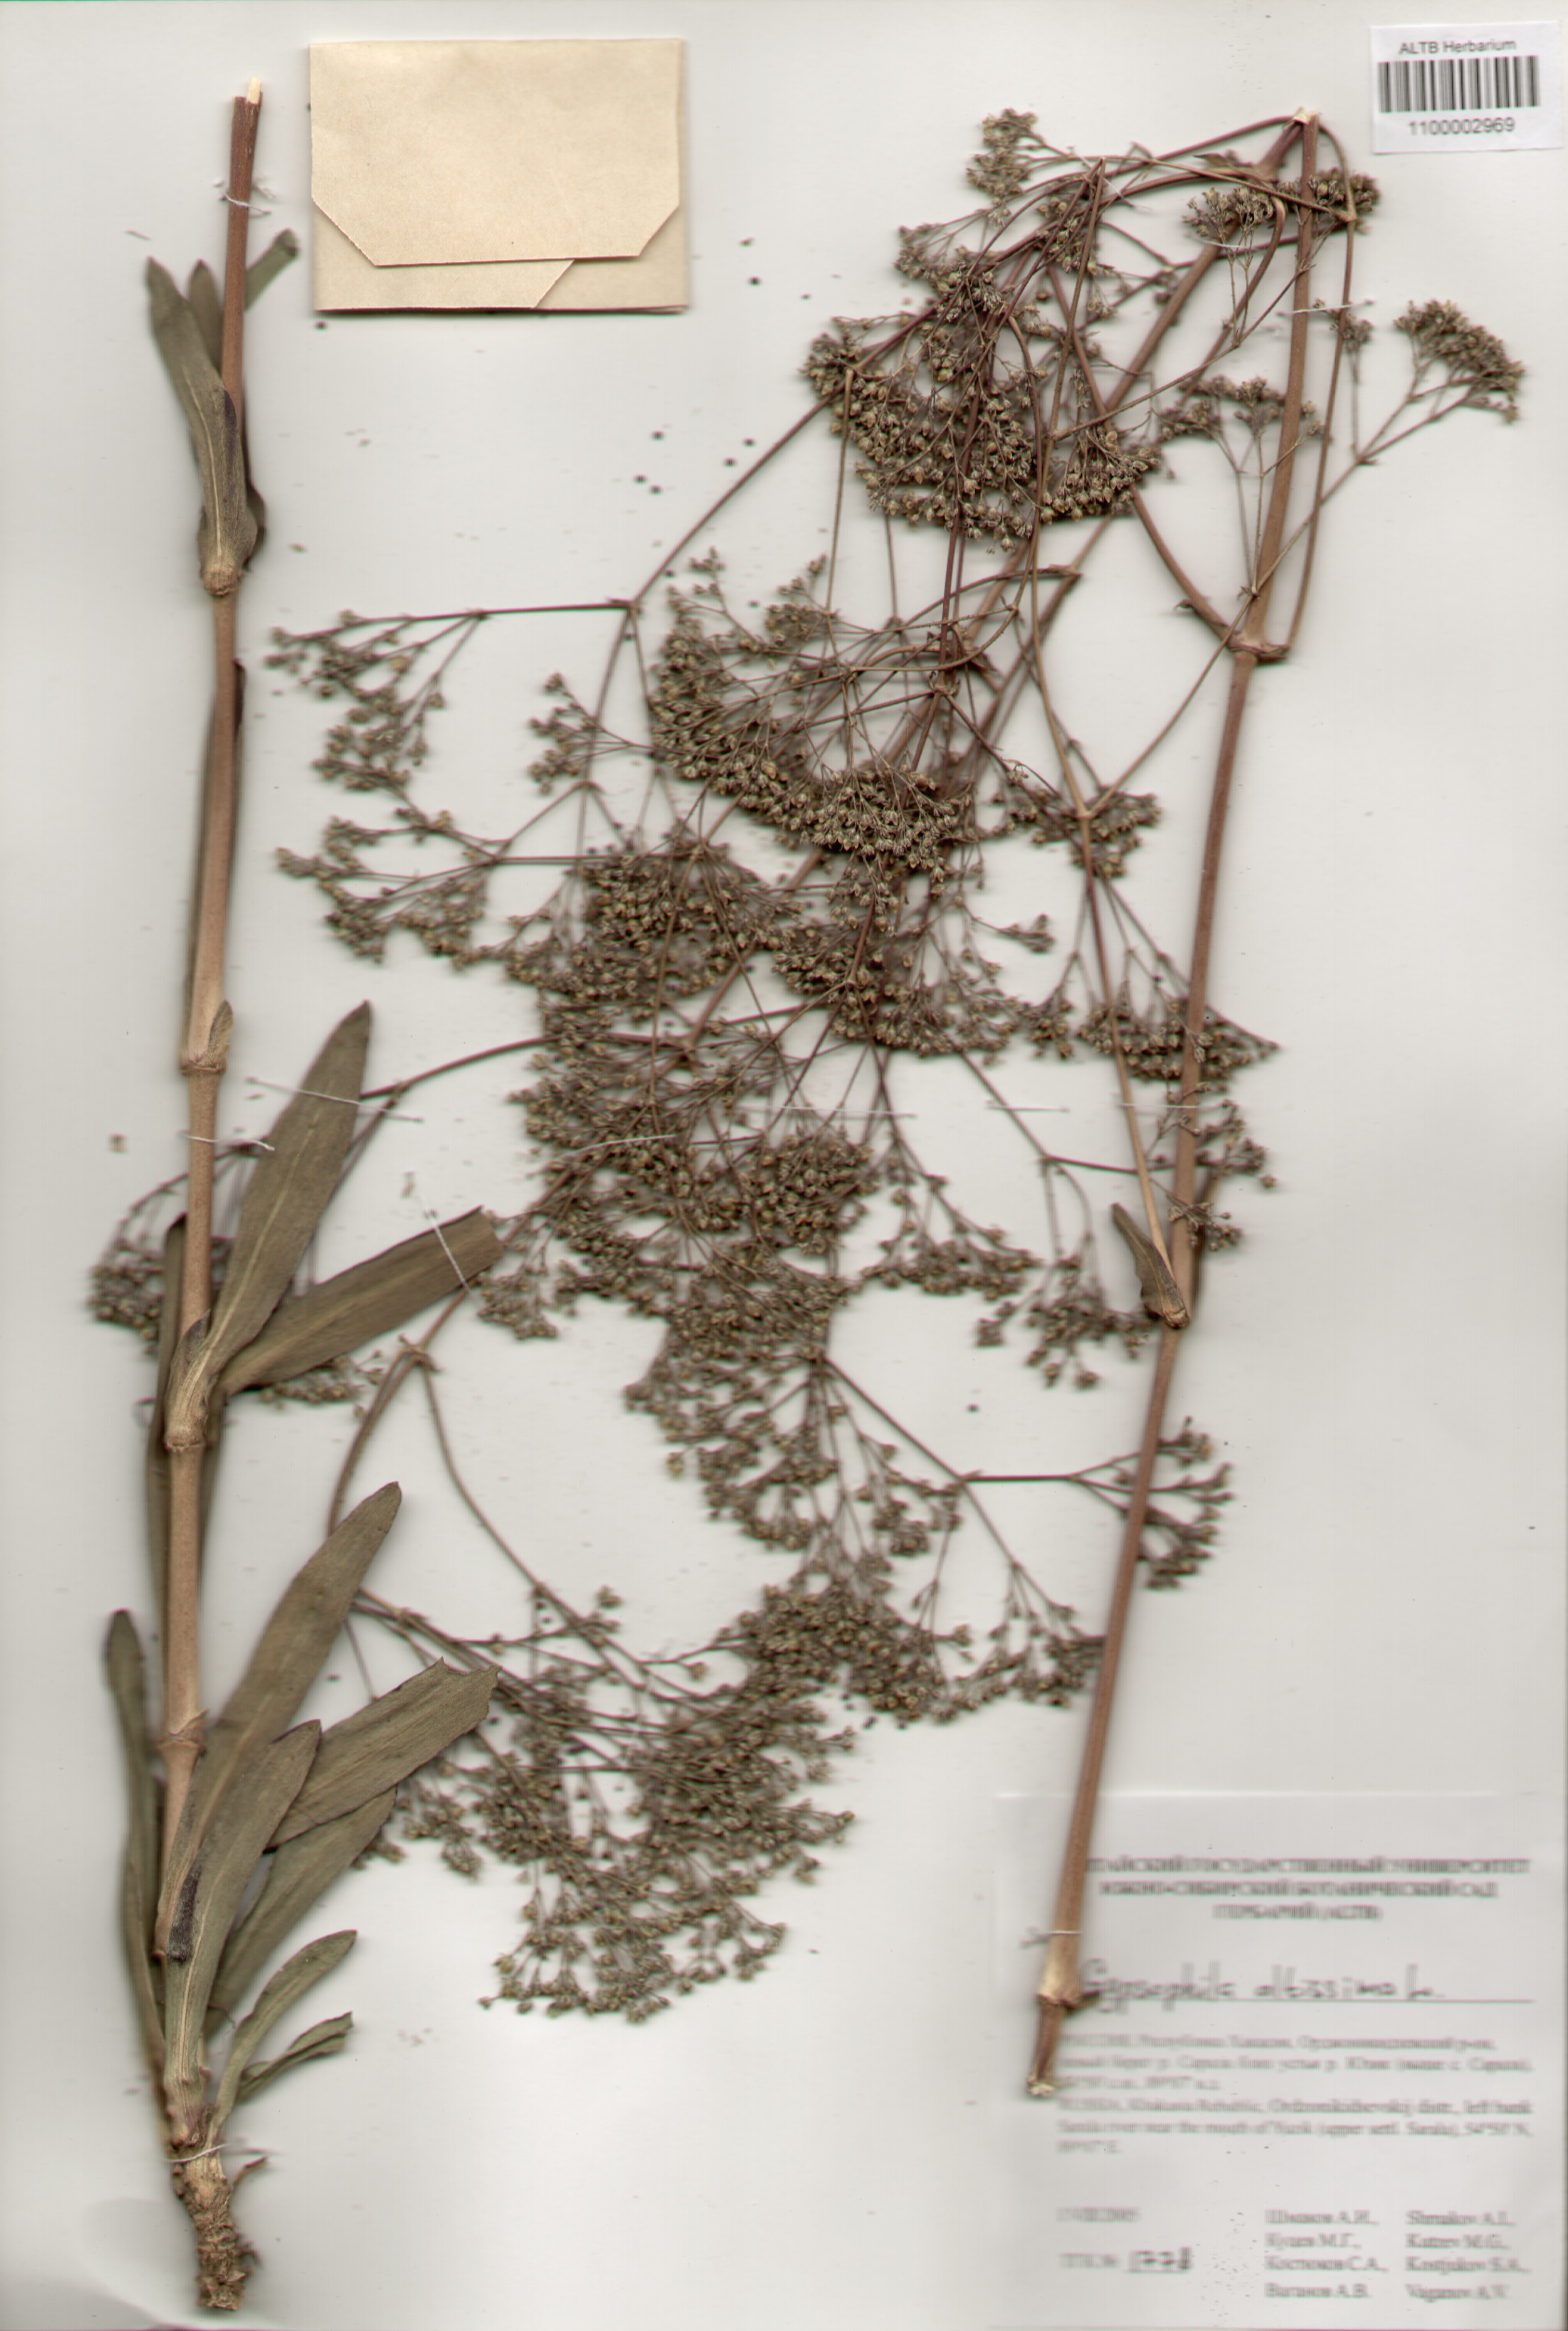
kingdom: Plantae
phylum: Tracheophyta
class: Magnoliopsida
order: Caryophyllales
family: Caryophyllaceae
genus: Gypsophila
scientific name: Gypsophila altissima
